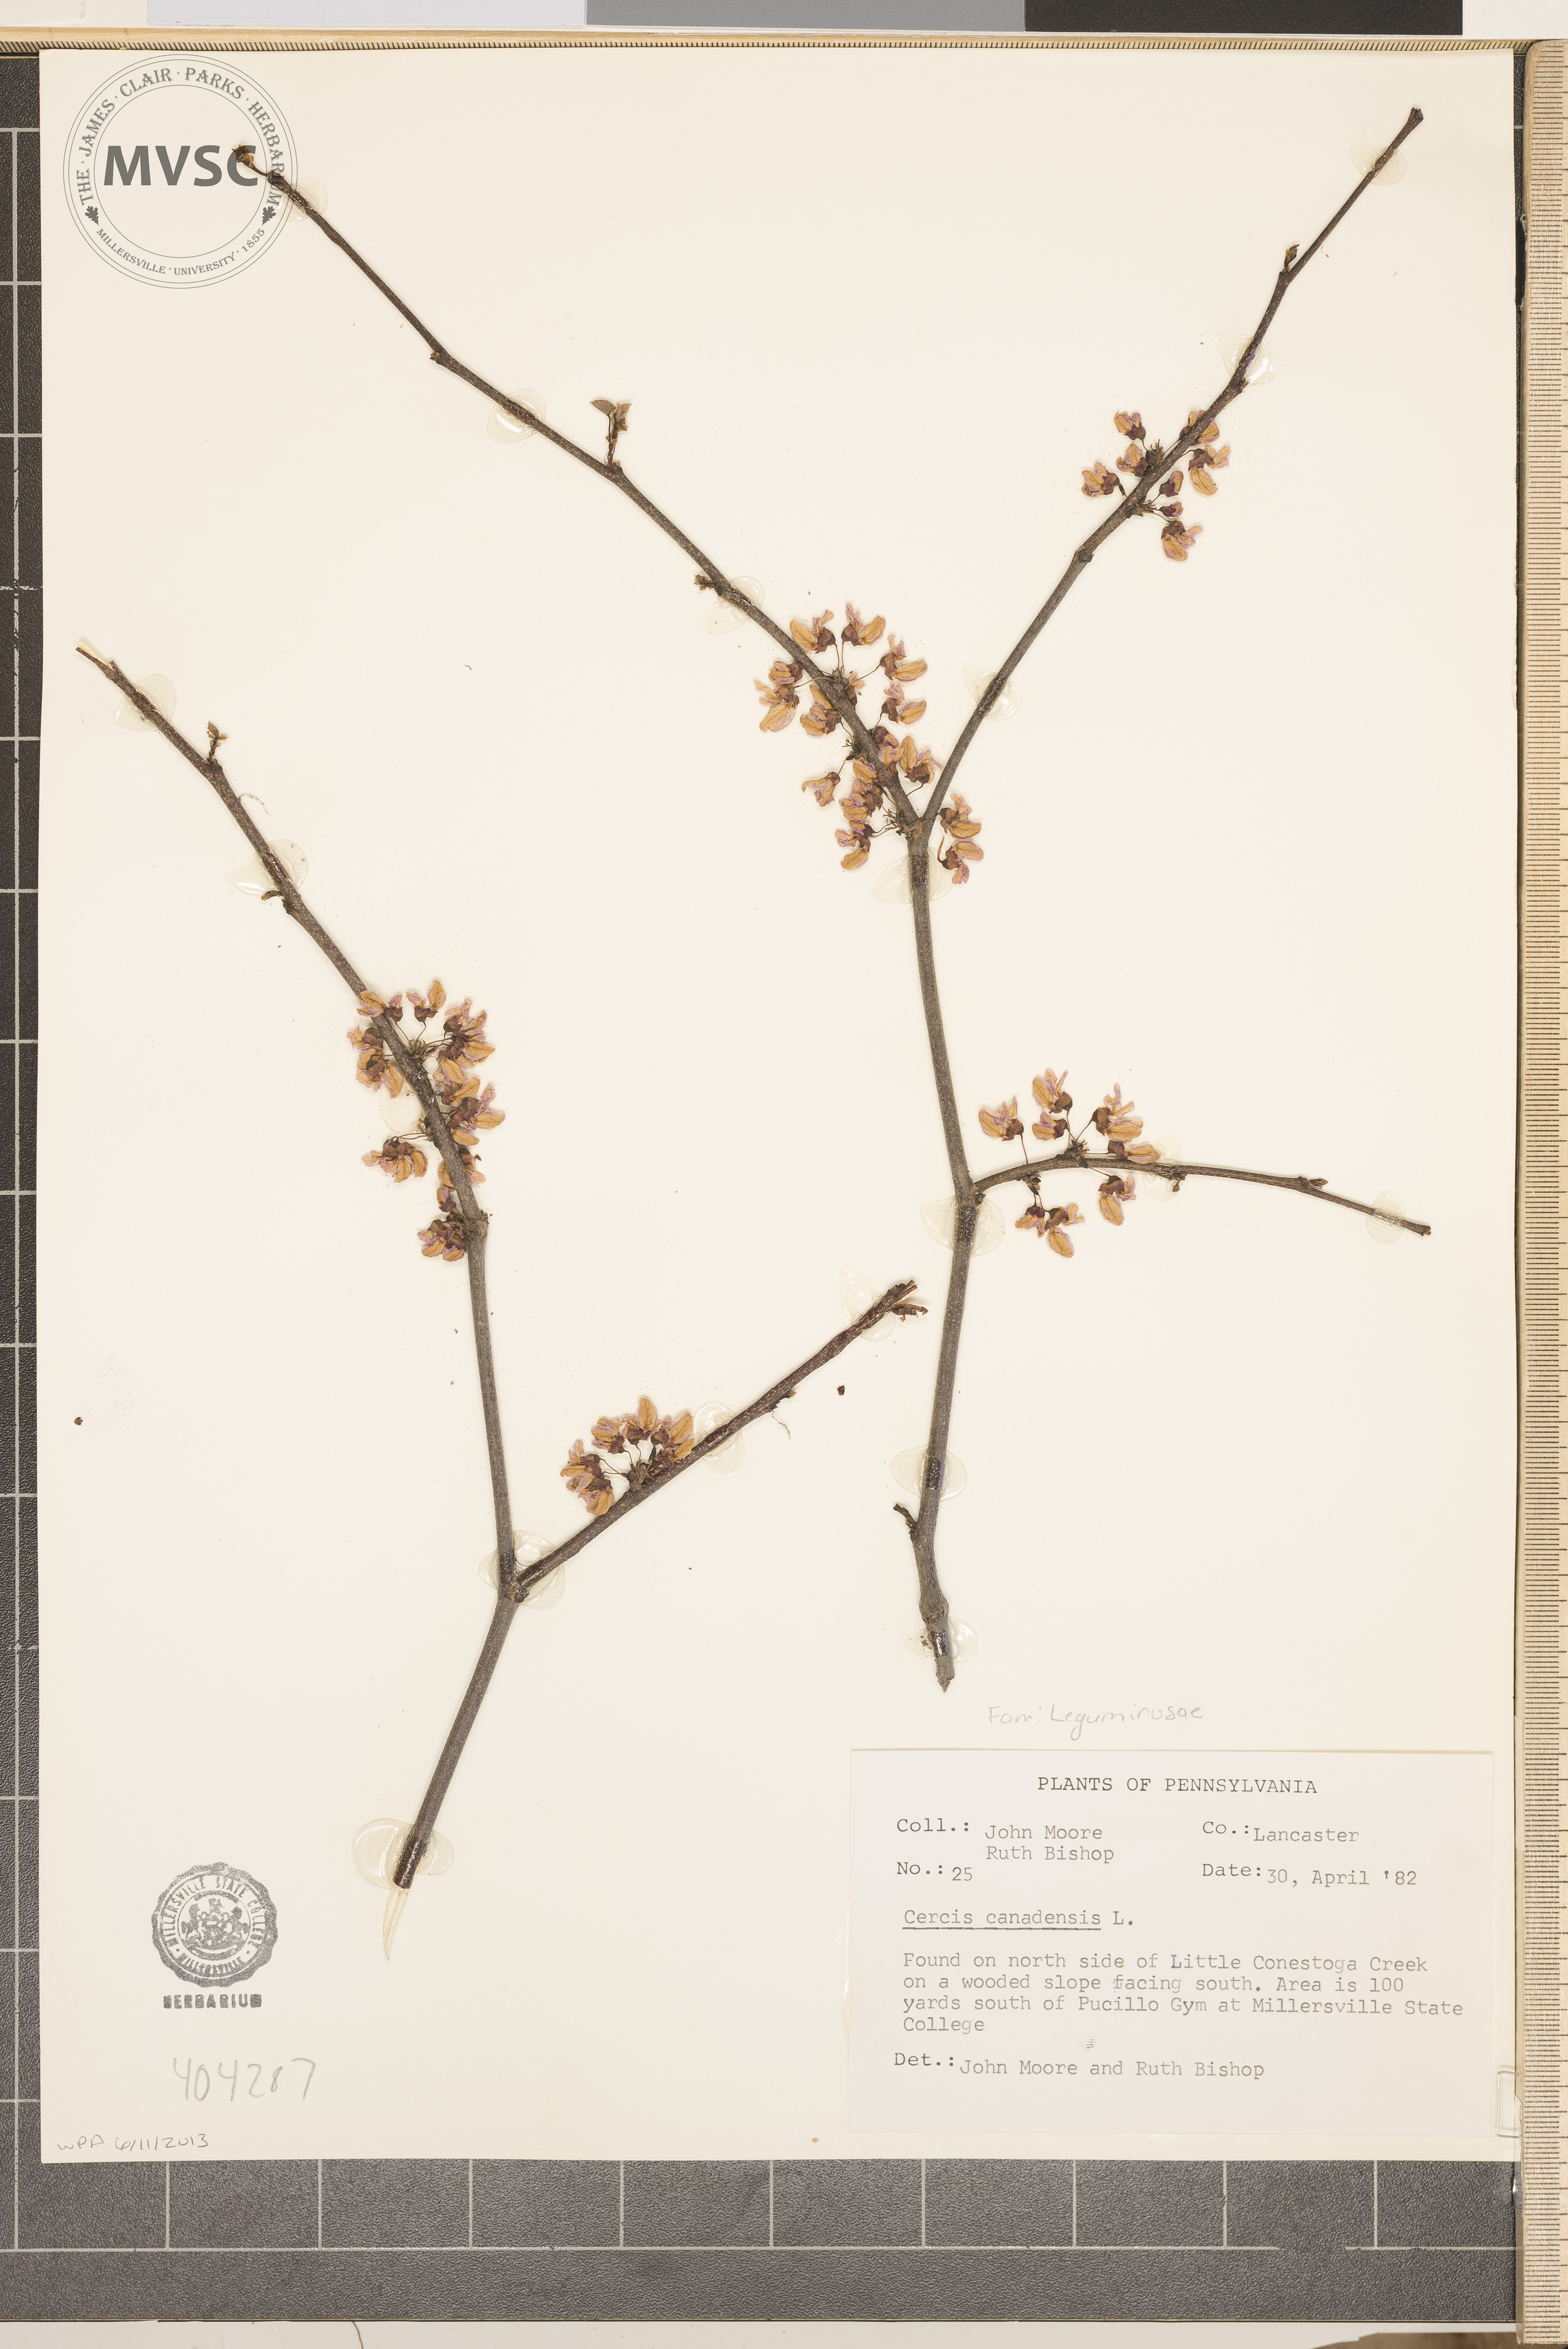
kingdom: Plantae
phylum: Tracheophyta
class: Magnoliopsida
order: Fabales
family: Fabaceae
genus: Cercis
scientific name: Cercis canadensis
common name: Eastern redbud
